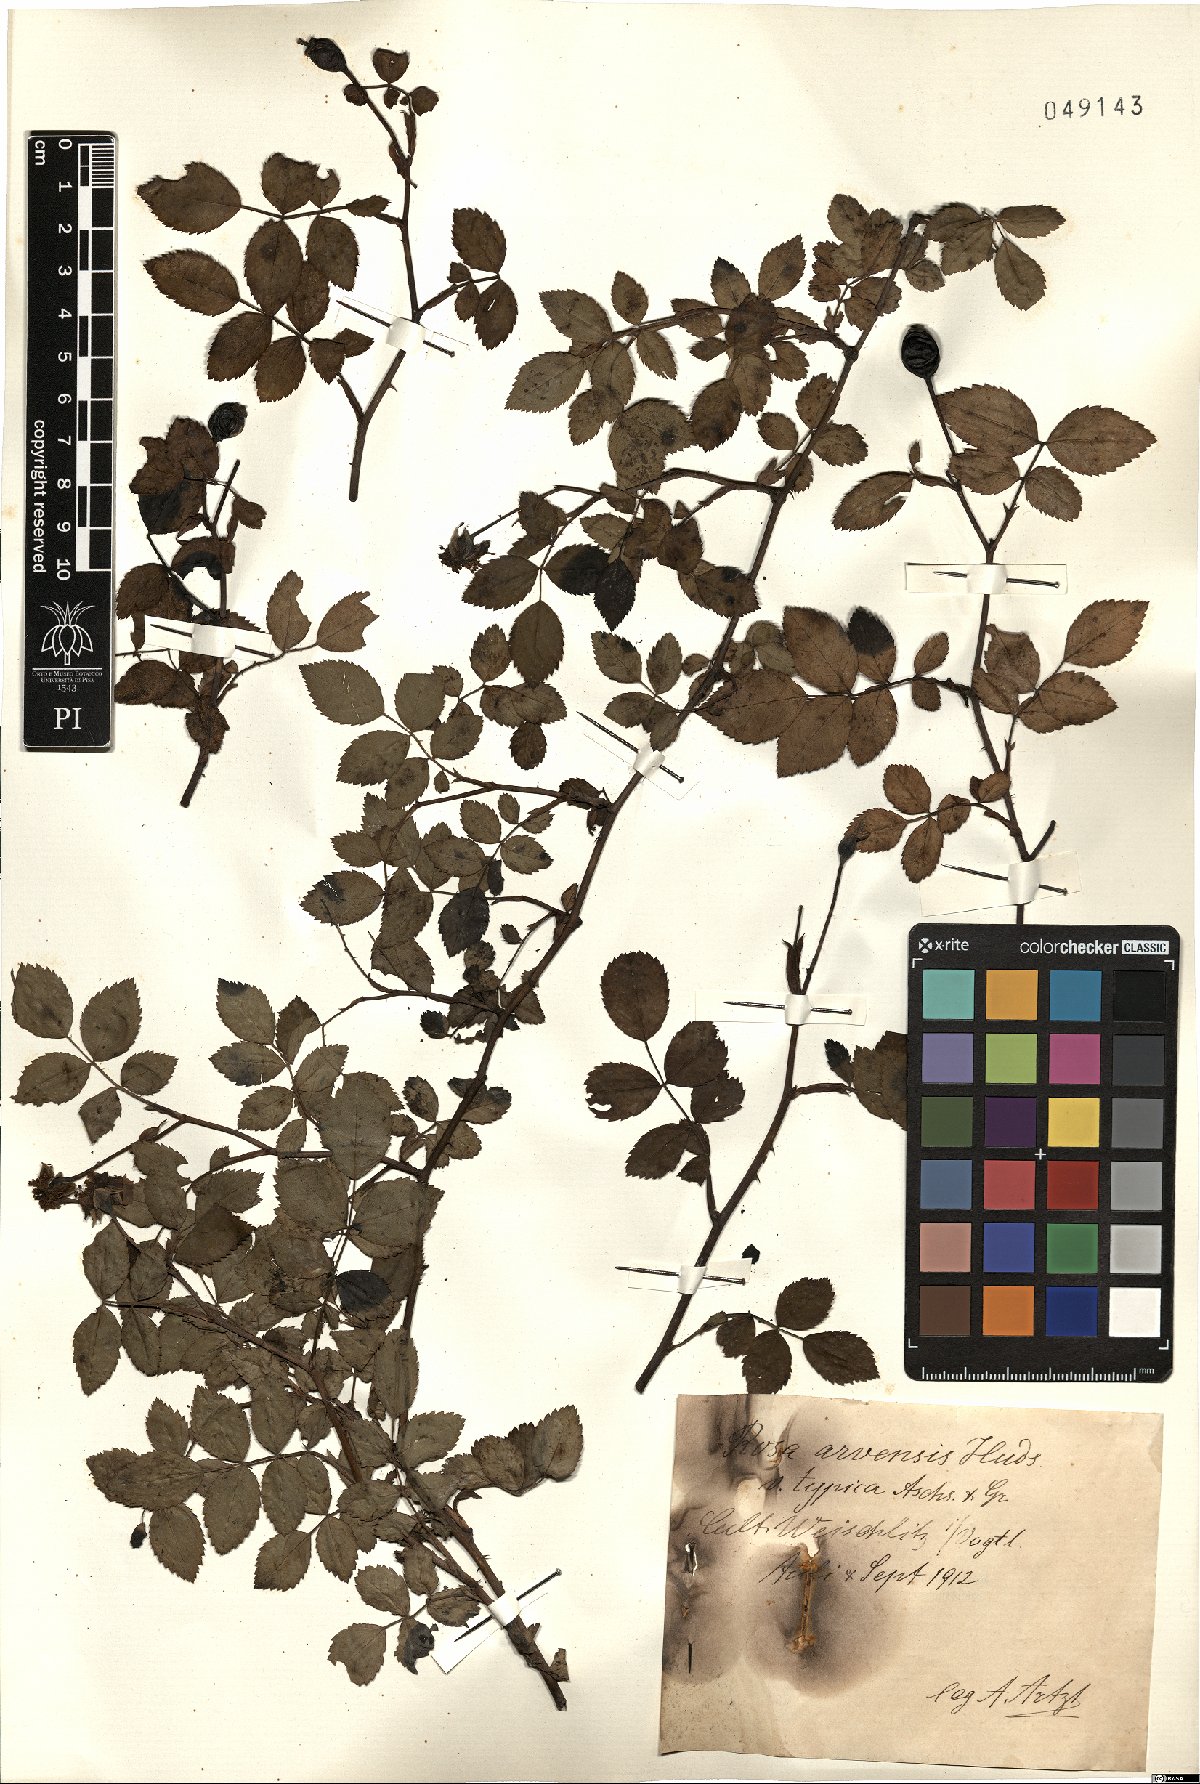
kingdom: Plantae
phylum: Tracheophyta
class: Magnoliopsida
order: Rosales
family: Rosaceae
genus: Rosa
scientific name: Rosa arvensis
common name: Field rose
